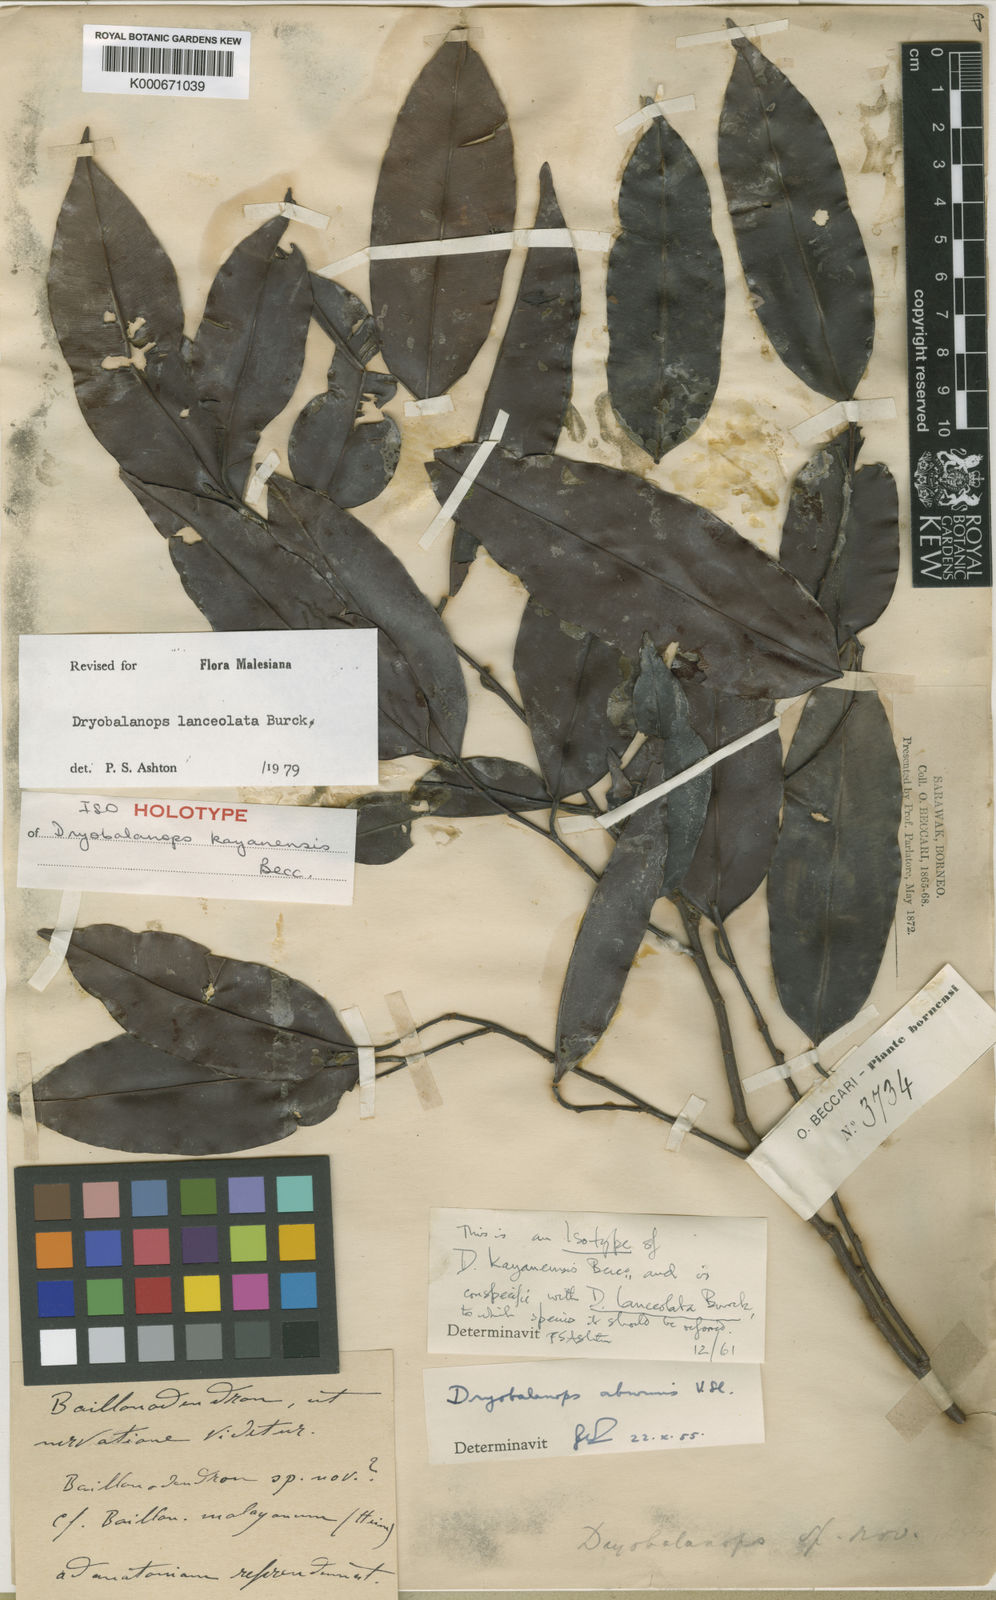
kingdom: Plantae
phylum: Tracheophyta
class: Magnoliopsida
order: Malvales
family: Dipterocarpaceae
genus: Dryobalanops
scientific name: Dryobalanops lanceolata
